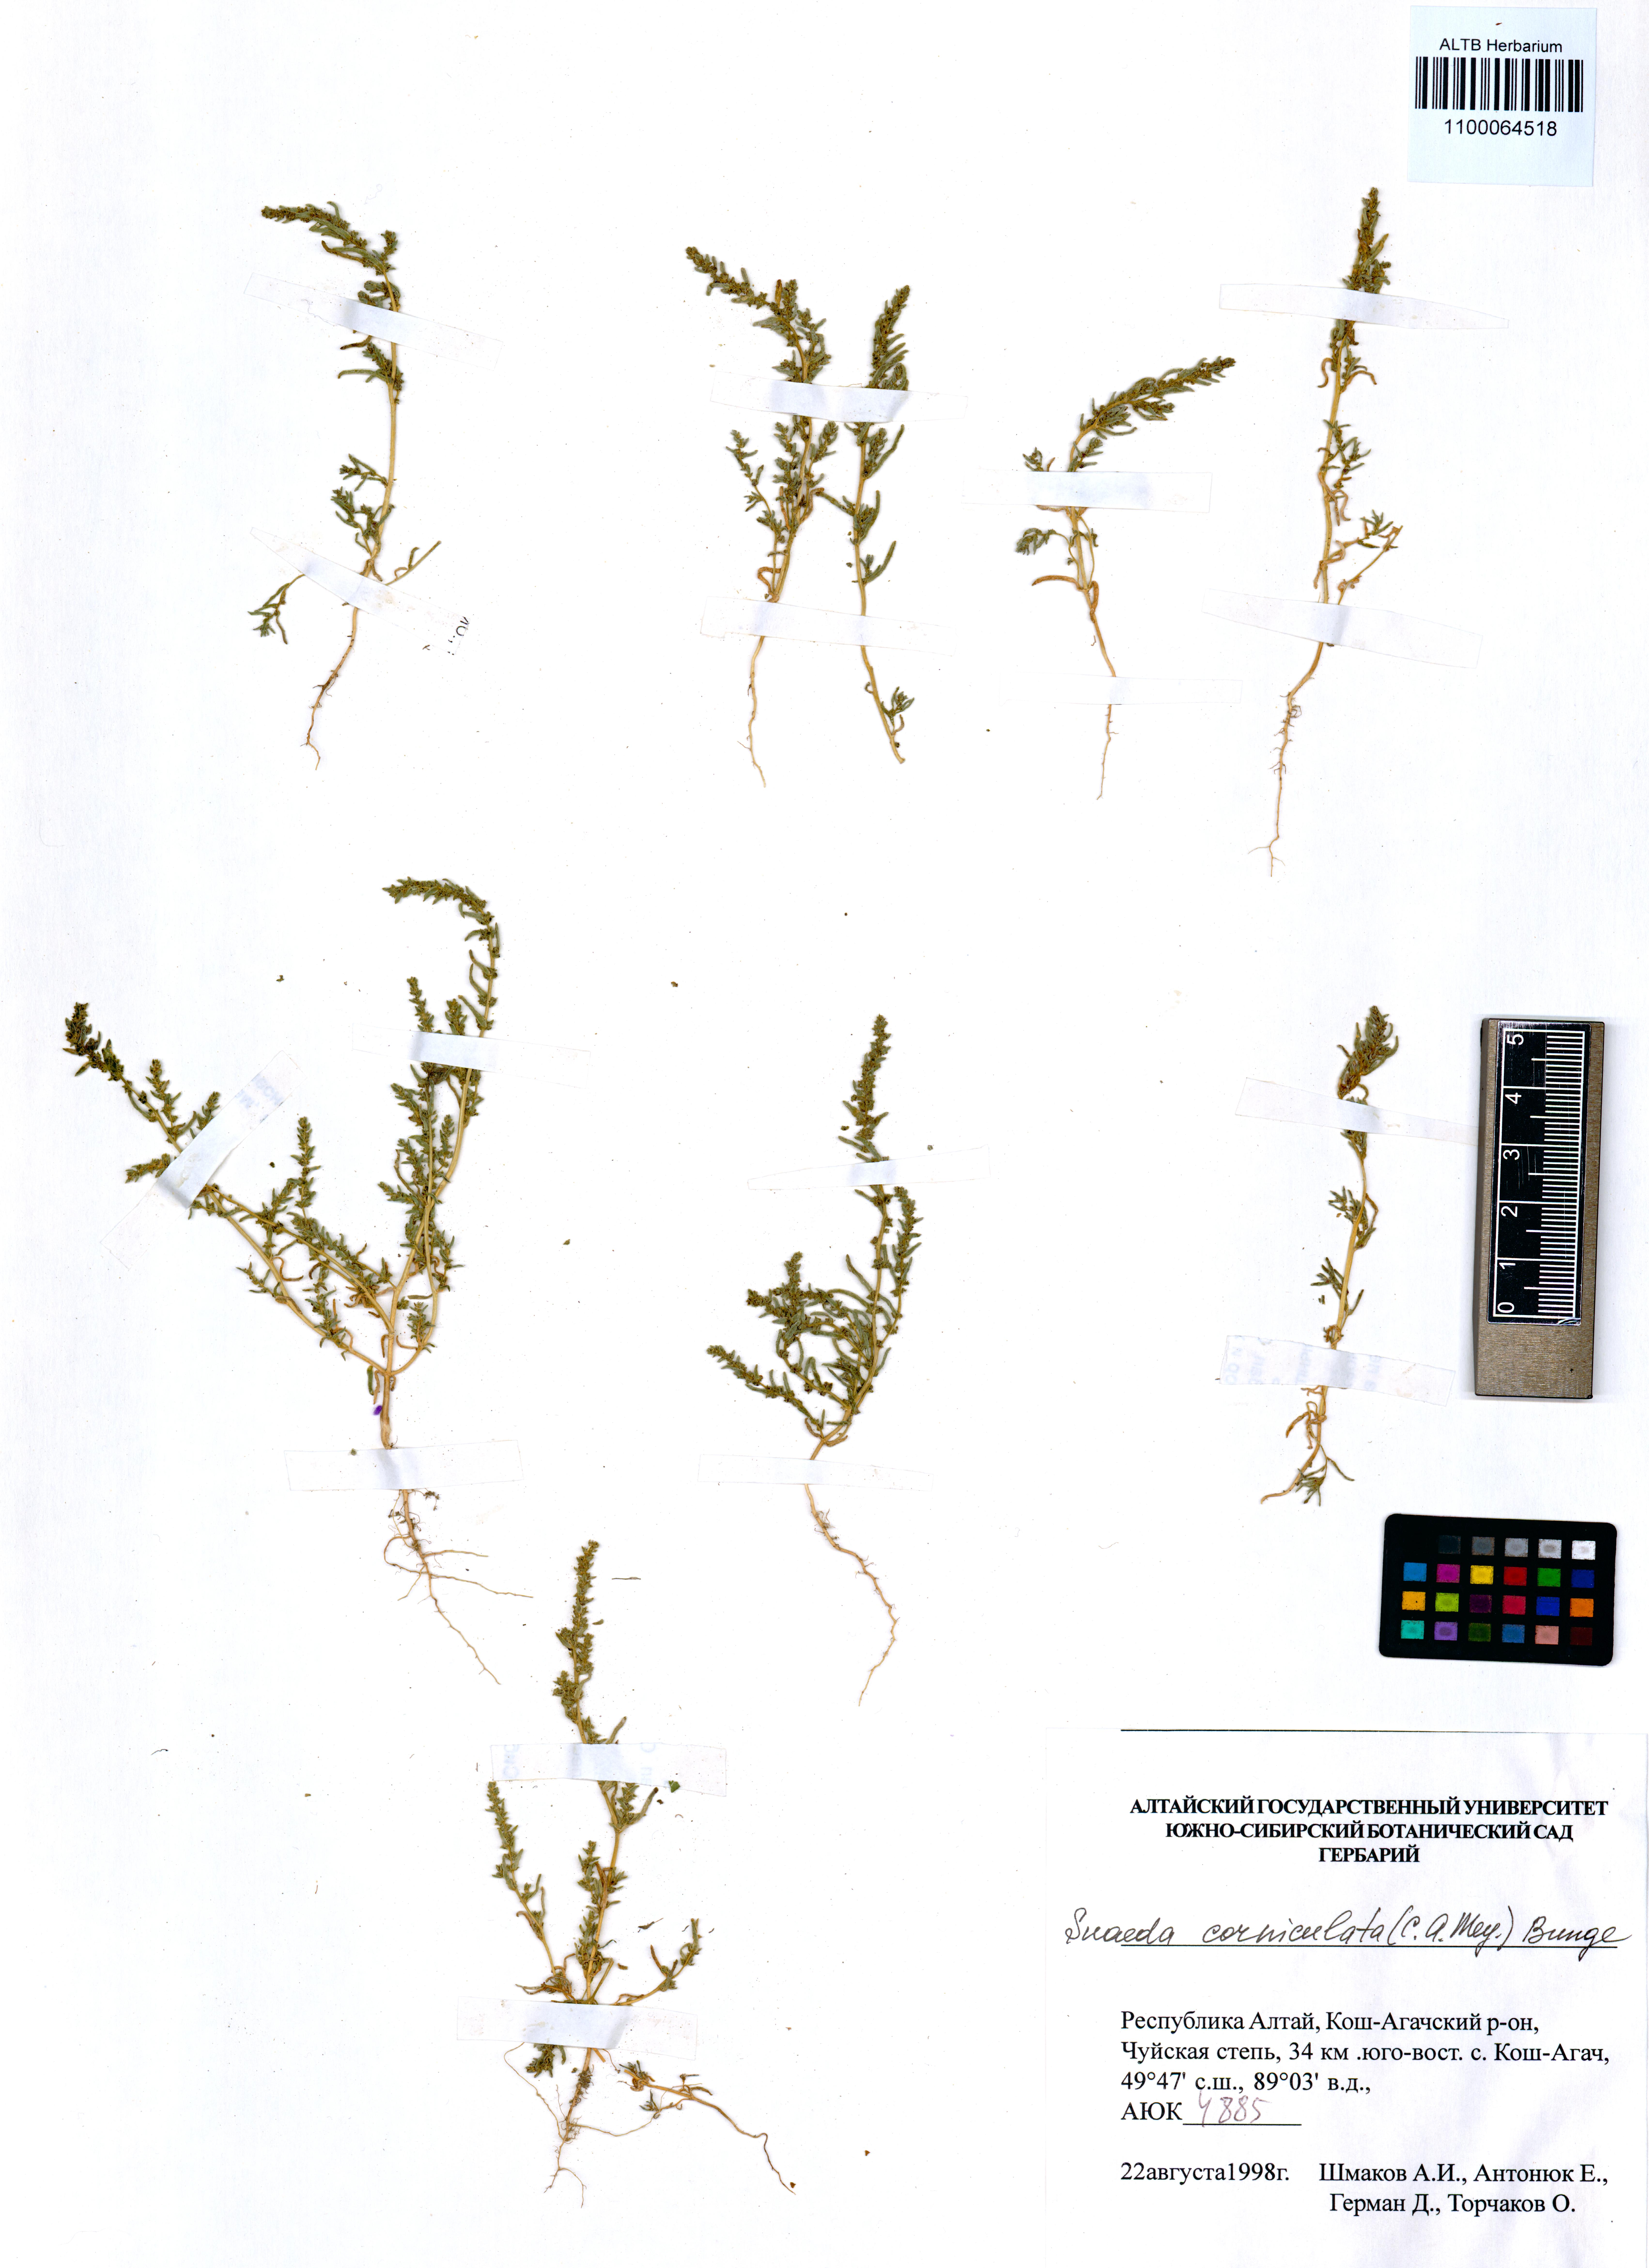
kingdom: Plantae
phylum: Tracheophyta
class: Magnoliopsida
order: Caryophyllales
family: Amaranthaceae
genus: Suaeda
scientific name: Suaeda corniculata
